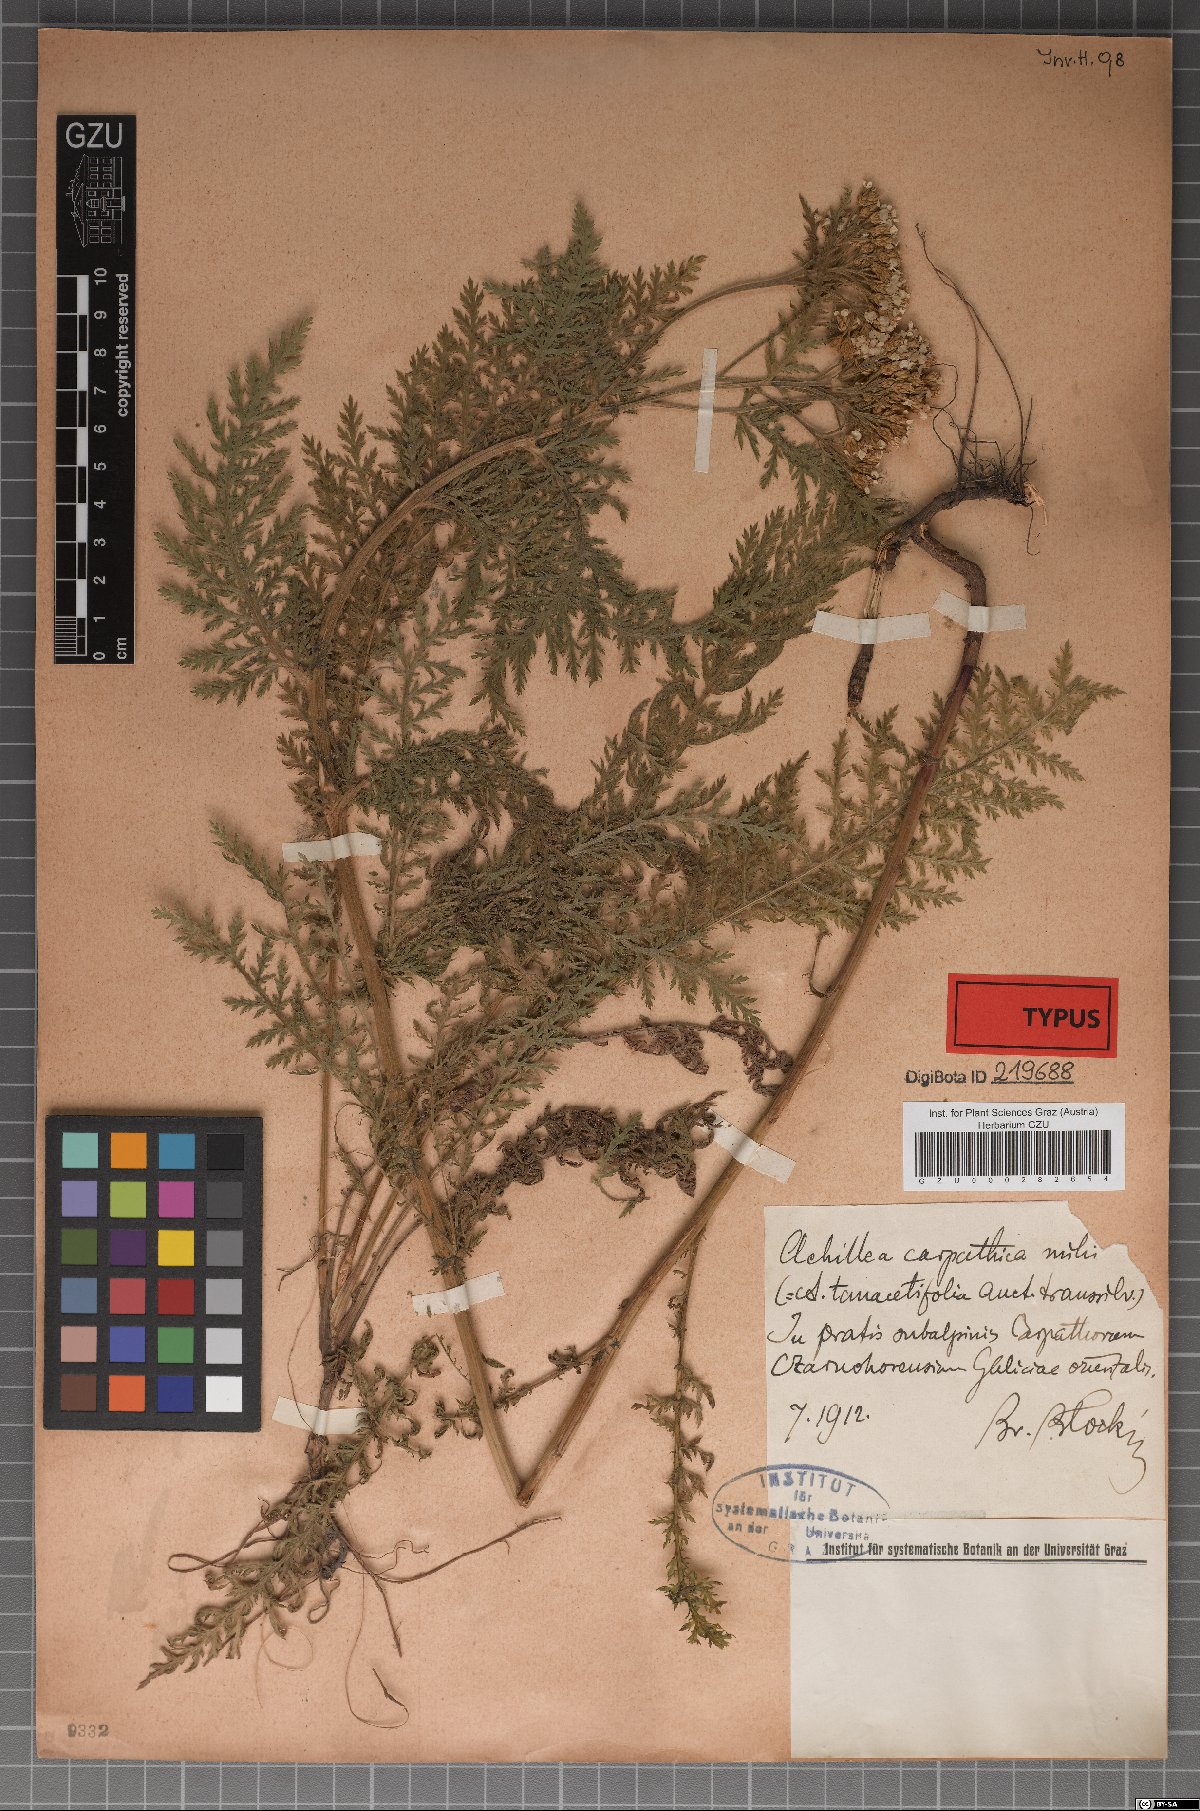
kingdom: Plantae
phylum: Tracheophyta
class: Magnoliopsida
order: Asterales
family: Asteraceae
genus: Achillea
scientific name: Achillea carpatica
